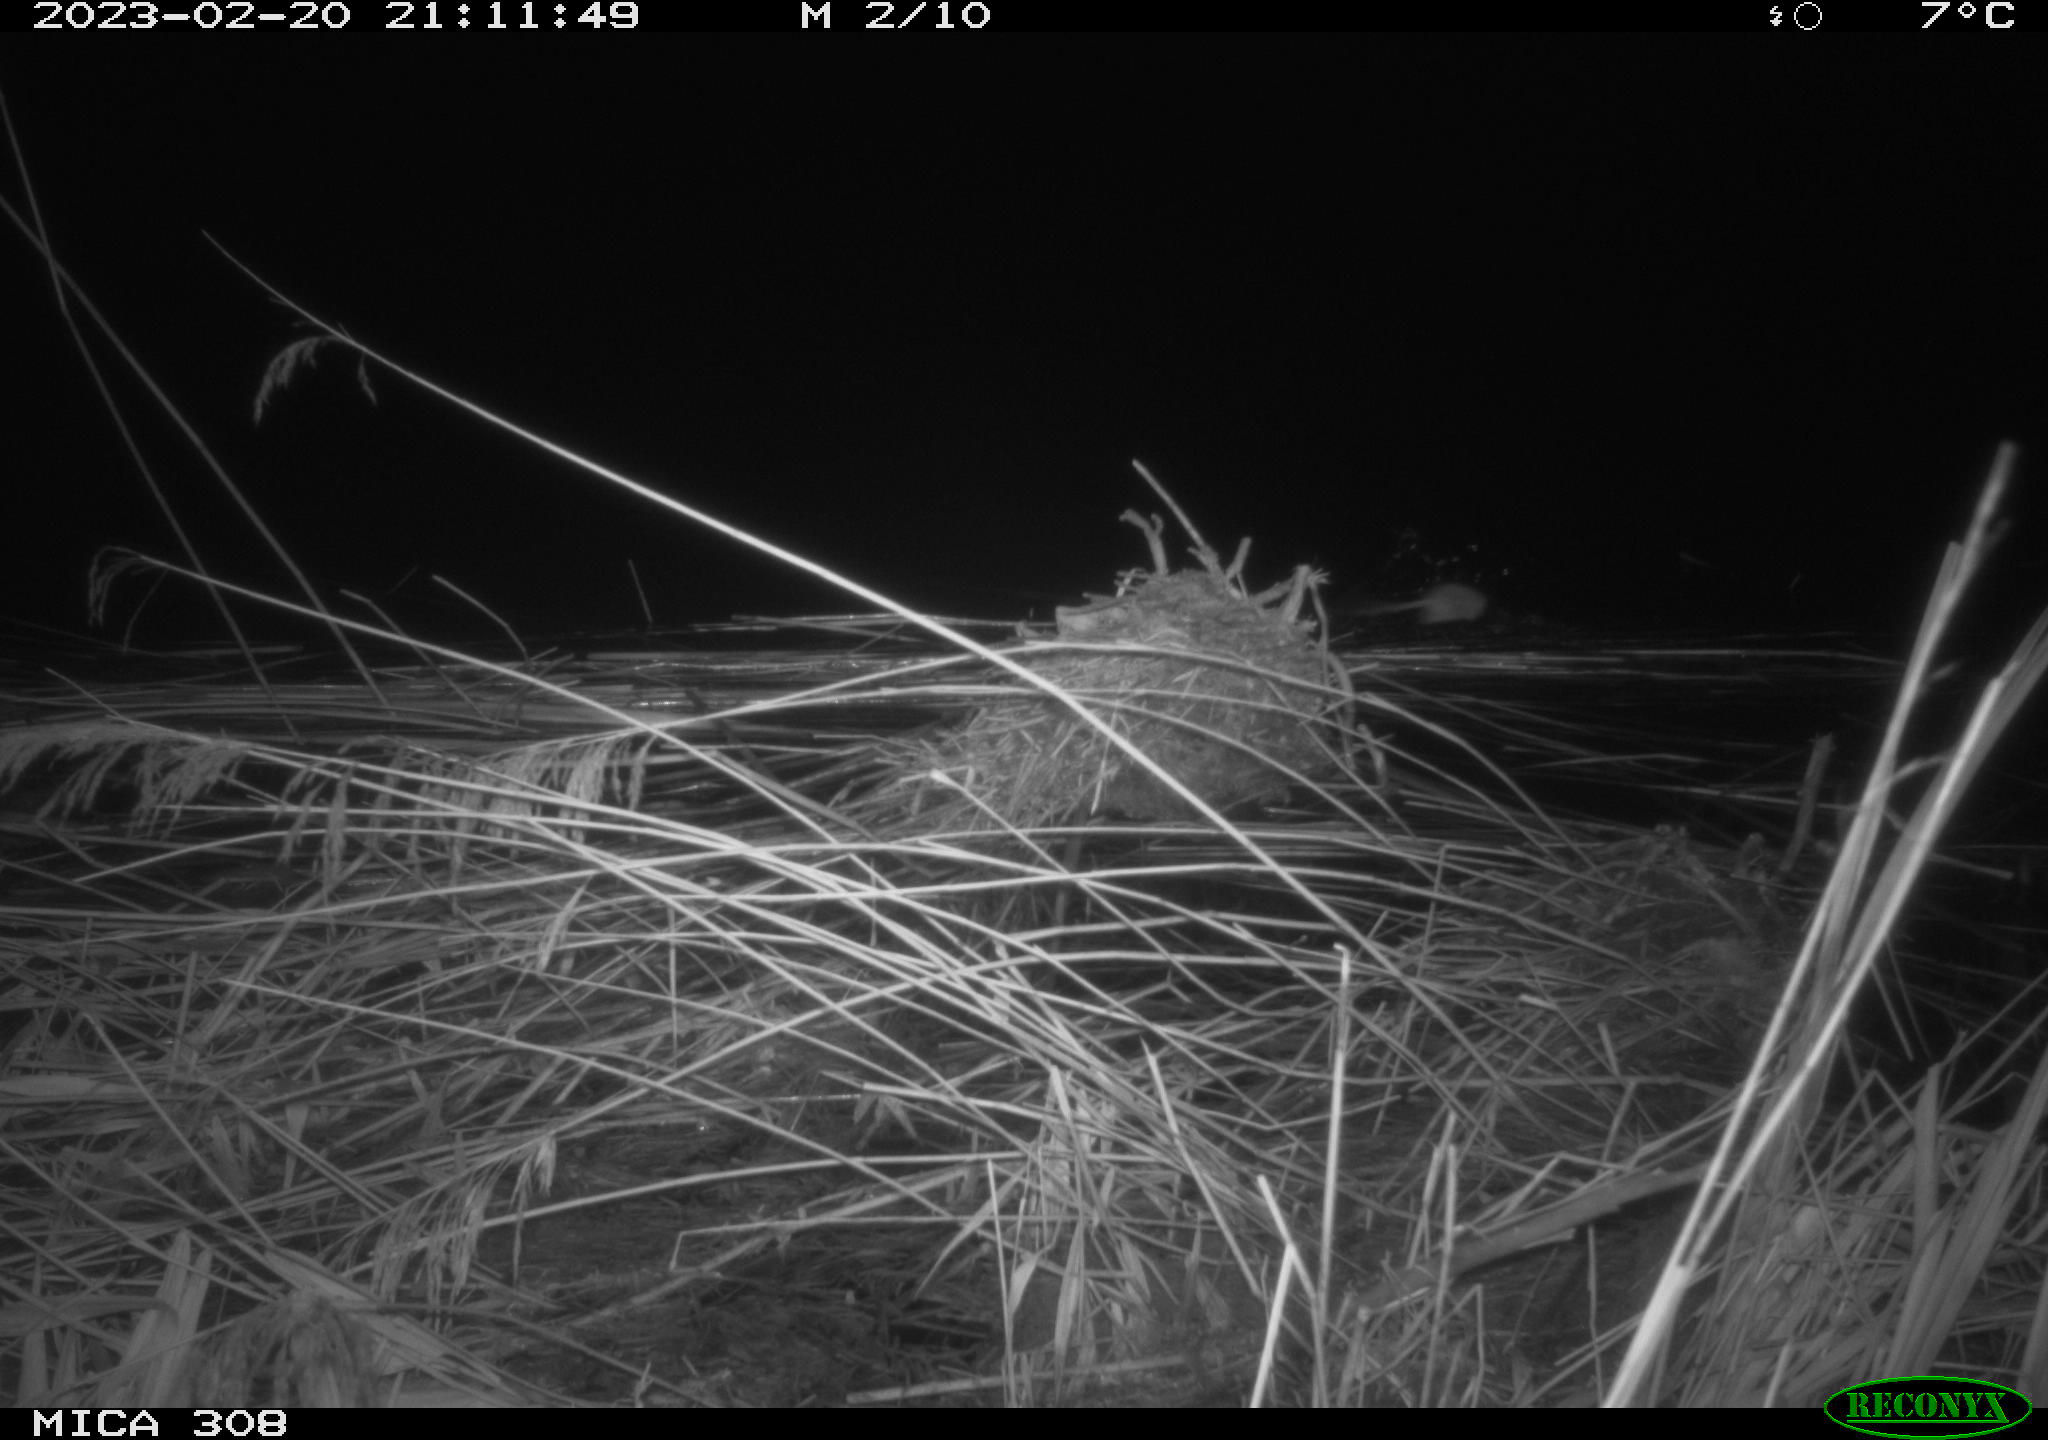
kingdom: Animalia
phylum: Chordata
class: Mammalia
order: Rodentia
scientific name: Rodentia
